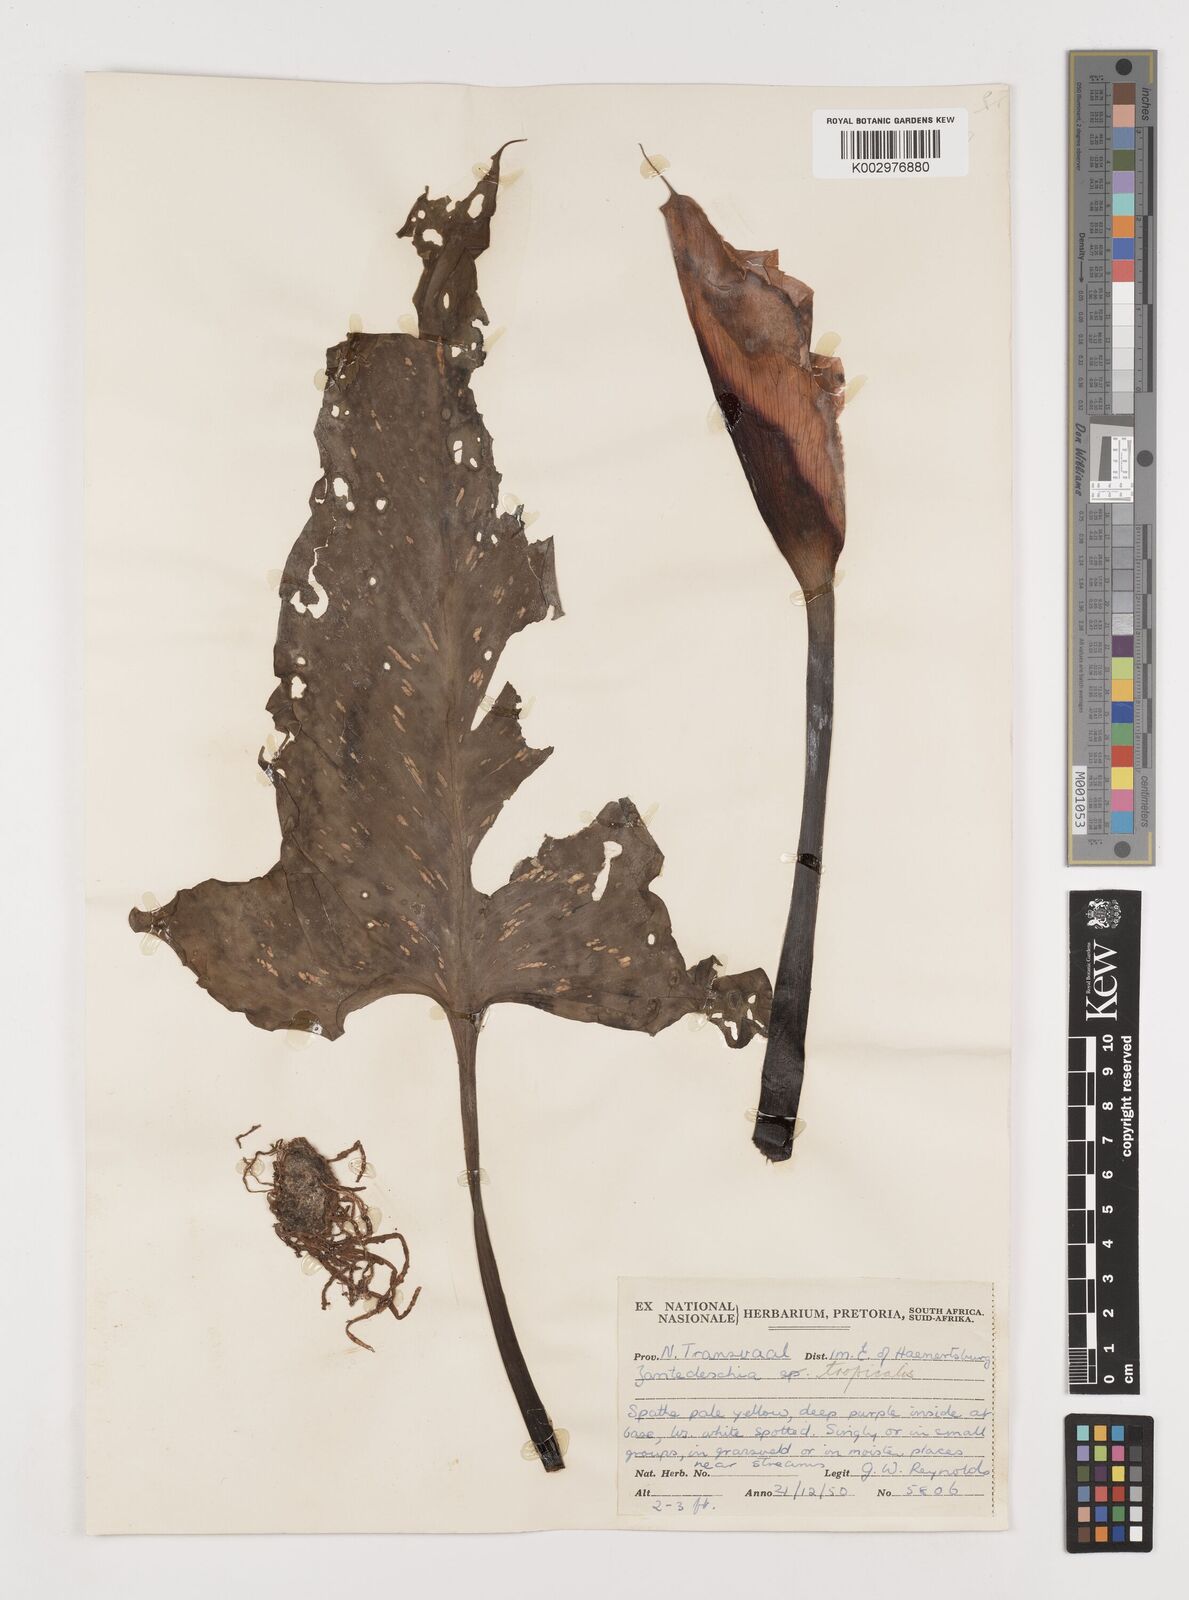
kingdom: Plantae
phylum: Tracheophyta
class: Liliopsida
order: Alismatales
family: Araceae
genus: Zantedeschia
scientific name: Zantedeschia albomaculata
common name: Spotted calla lily
